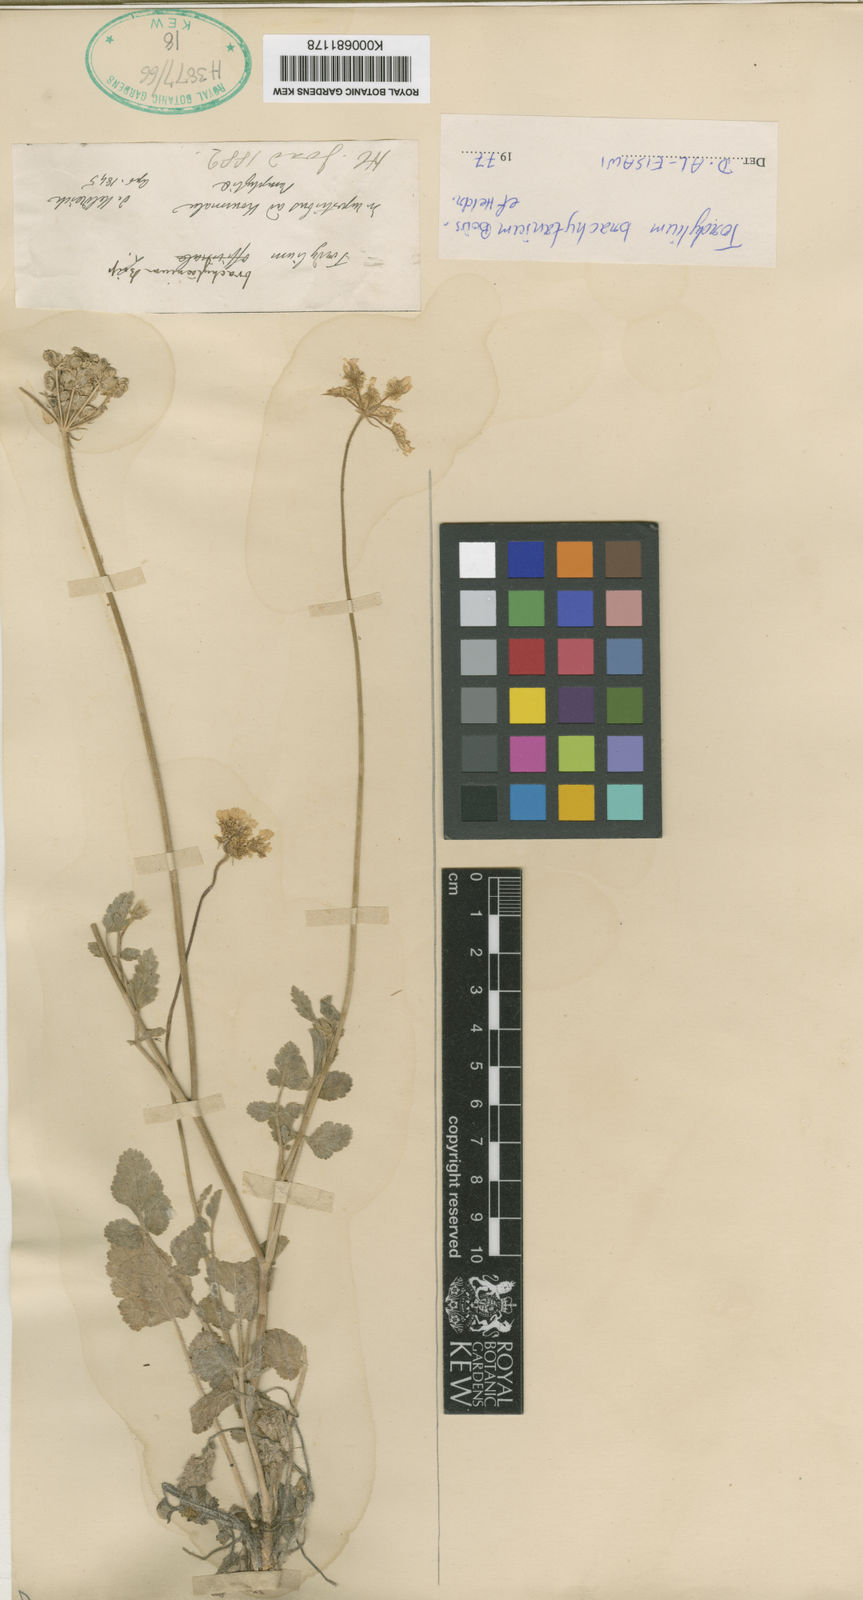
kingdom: Plantae
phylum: Tracheophyta
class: Magnoliopsida
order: Apiales
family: Apiaceae
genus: Tordylium
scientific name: Tordylium brachytaenium
